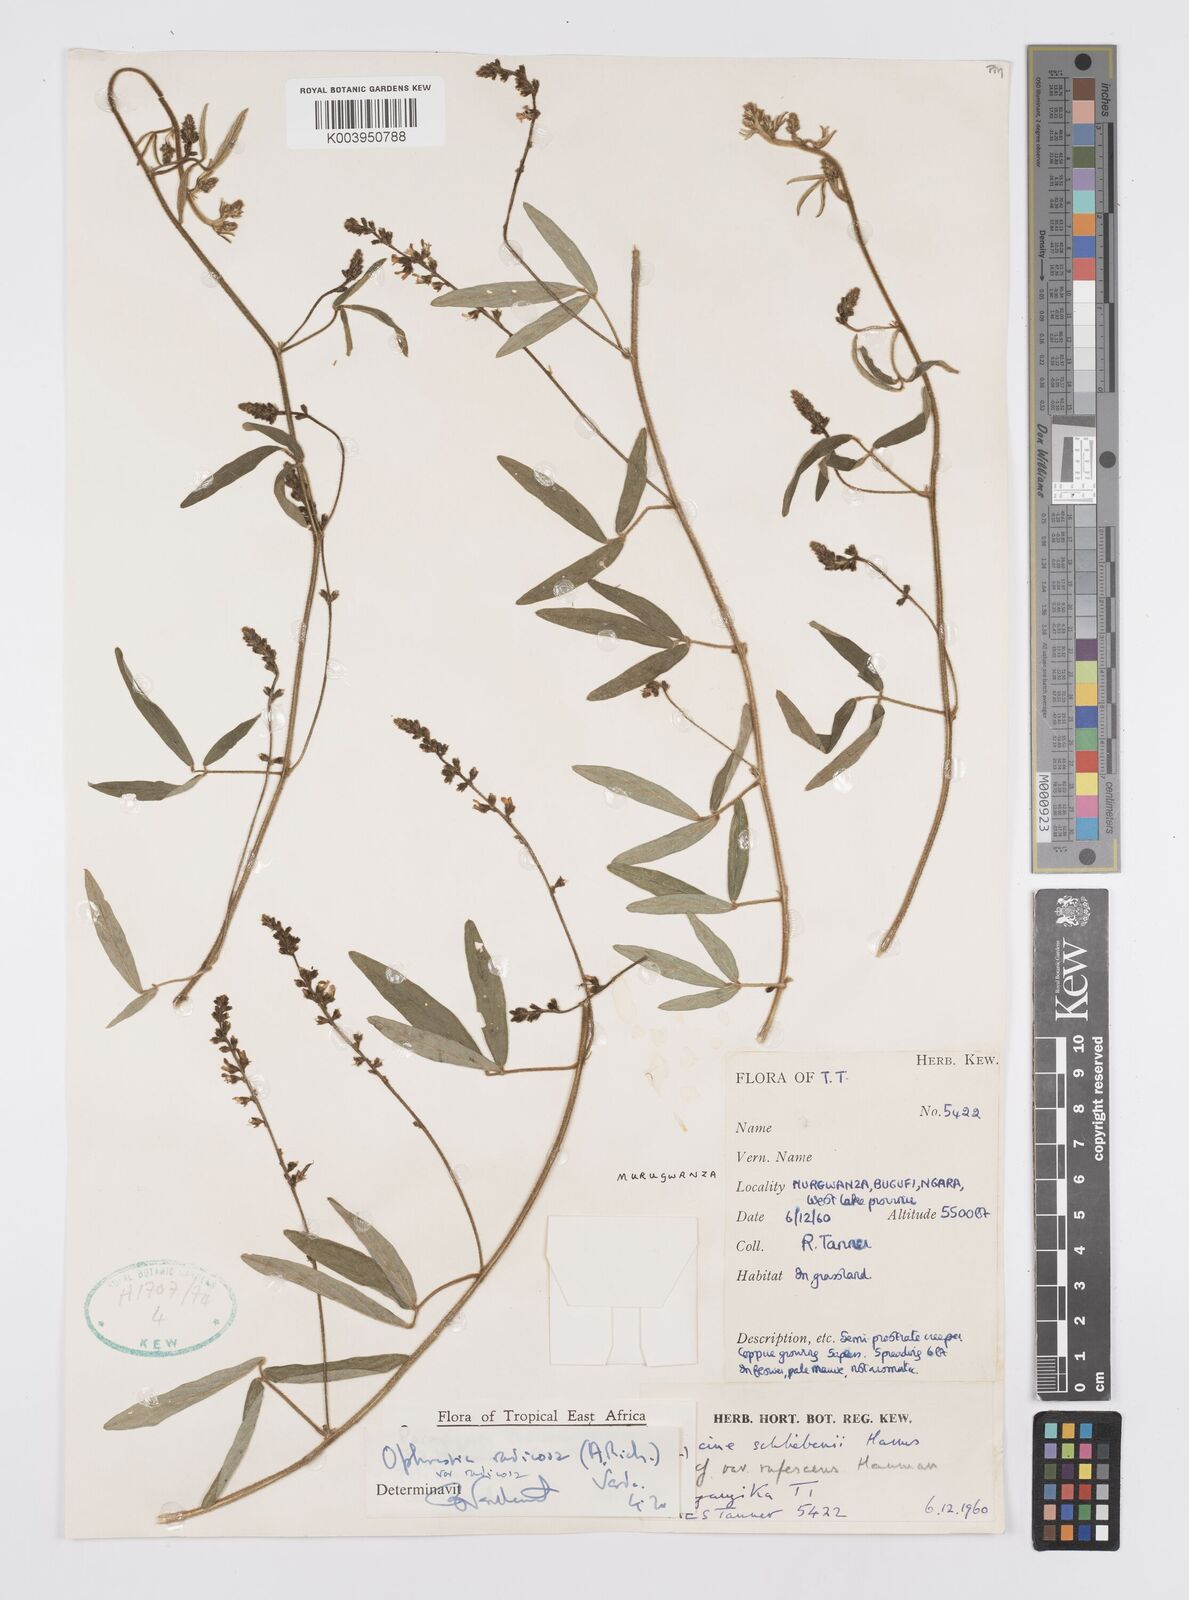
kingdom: Plantae
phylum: Tracheophyta
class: Magnoliopsida
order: Fabales
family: Fabaceae
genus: Ophrestia
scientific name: Ophrestia radicosa
